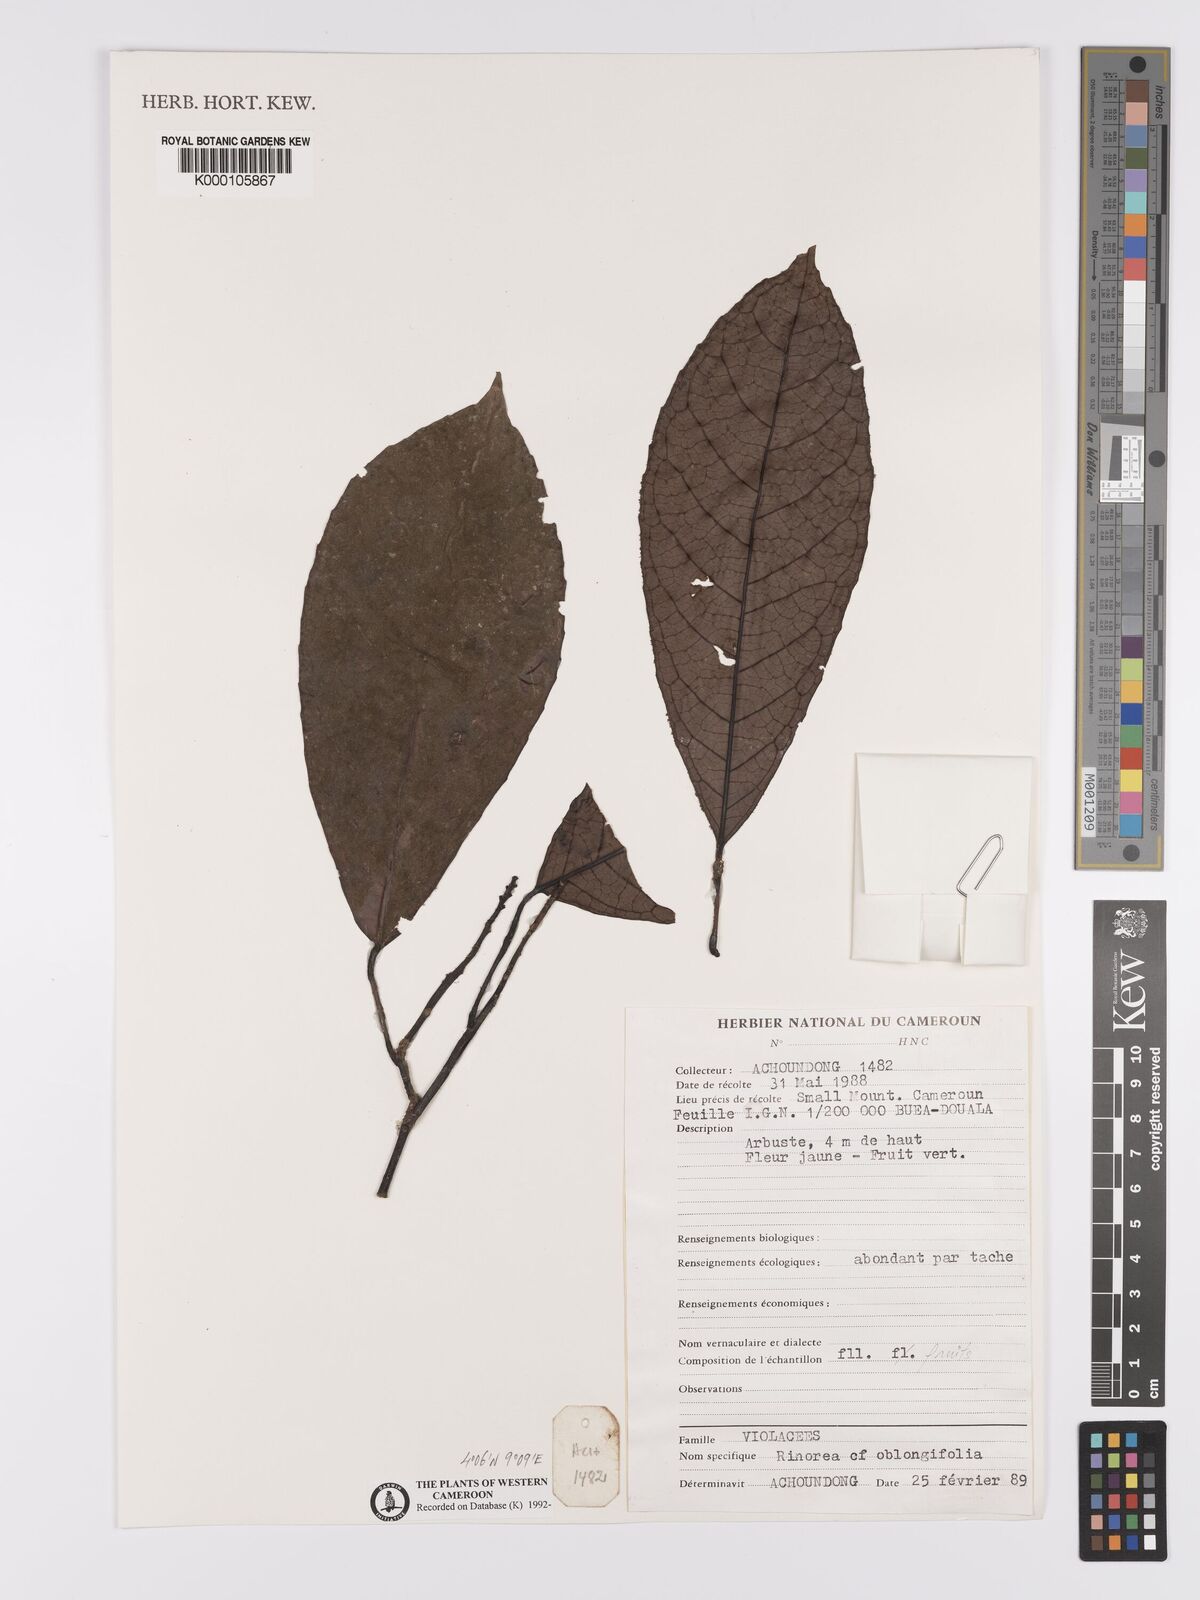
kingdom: Plantae
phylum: Tracheophyta
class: Magnoliopsida
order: Apiales
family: Pittosporaceae
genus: Marianthus
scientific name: Marianthus coeruleopunctatus
